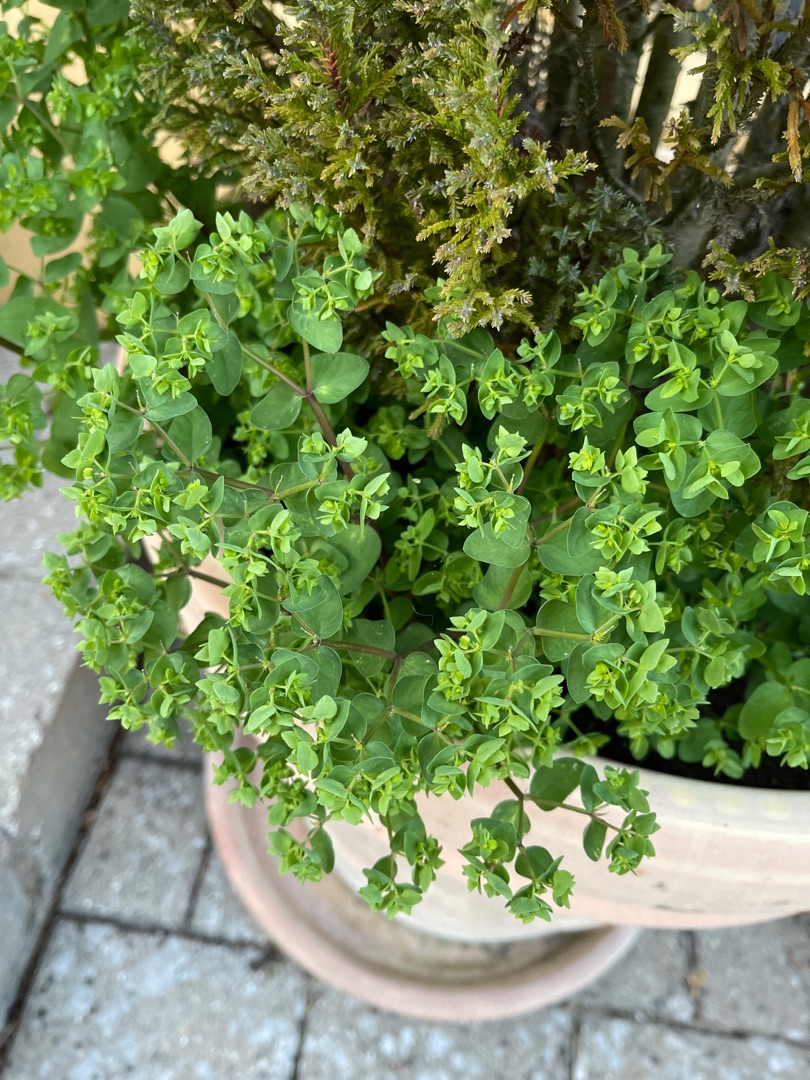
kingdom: Plantae
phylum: Tracheophyta
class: Magnoliopsida
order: Malpighiales
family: Euphorbiaceae
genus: Euphorbia
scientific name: Euphorbia peplus
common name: Gaffel-vortemælk
